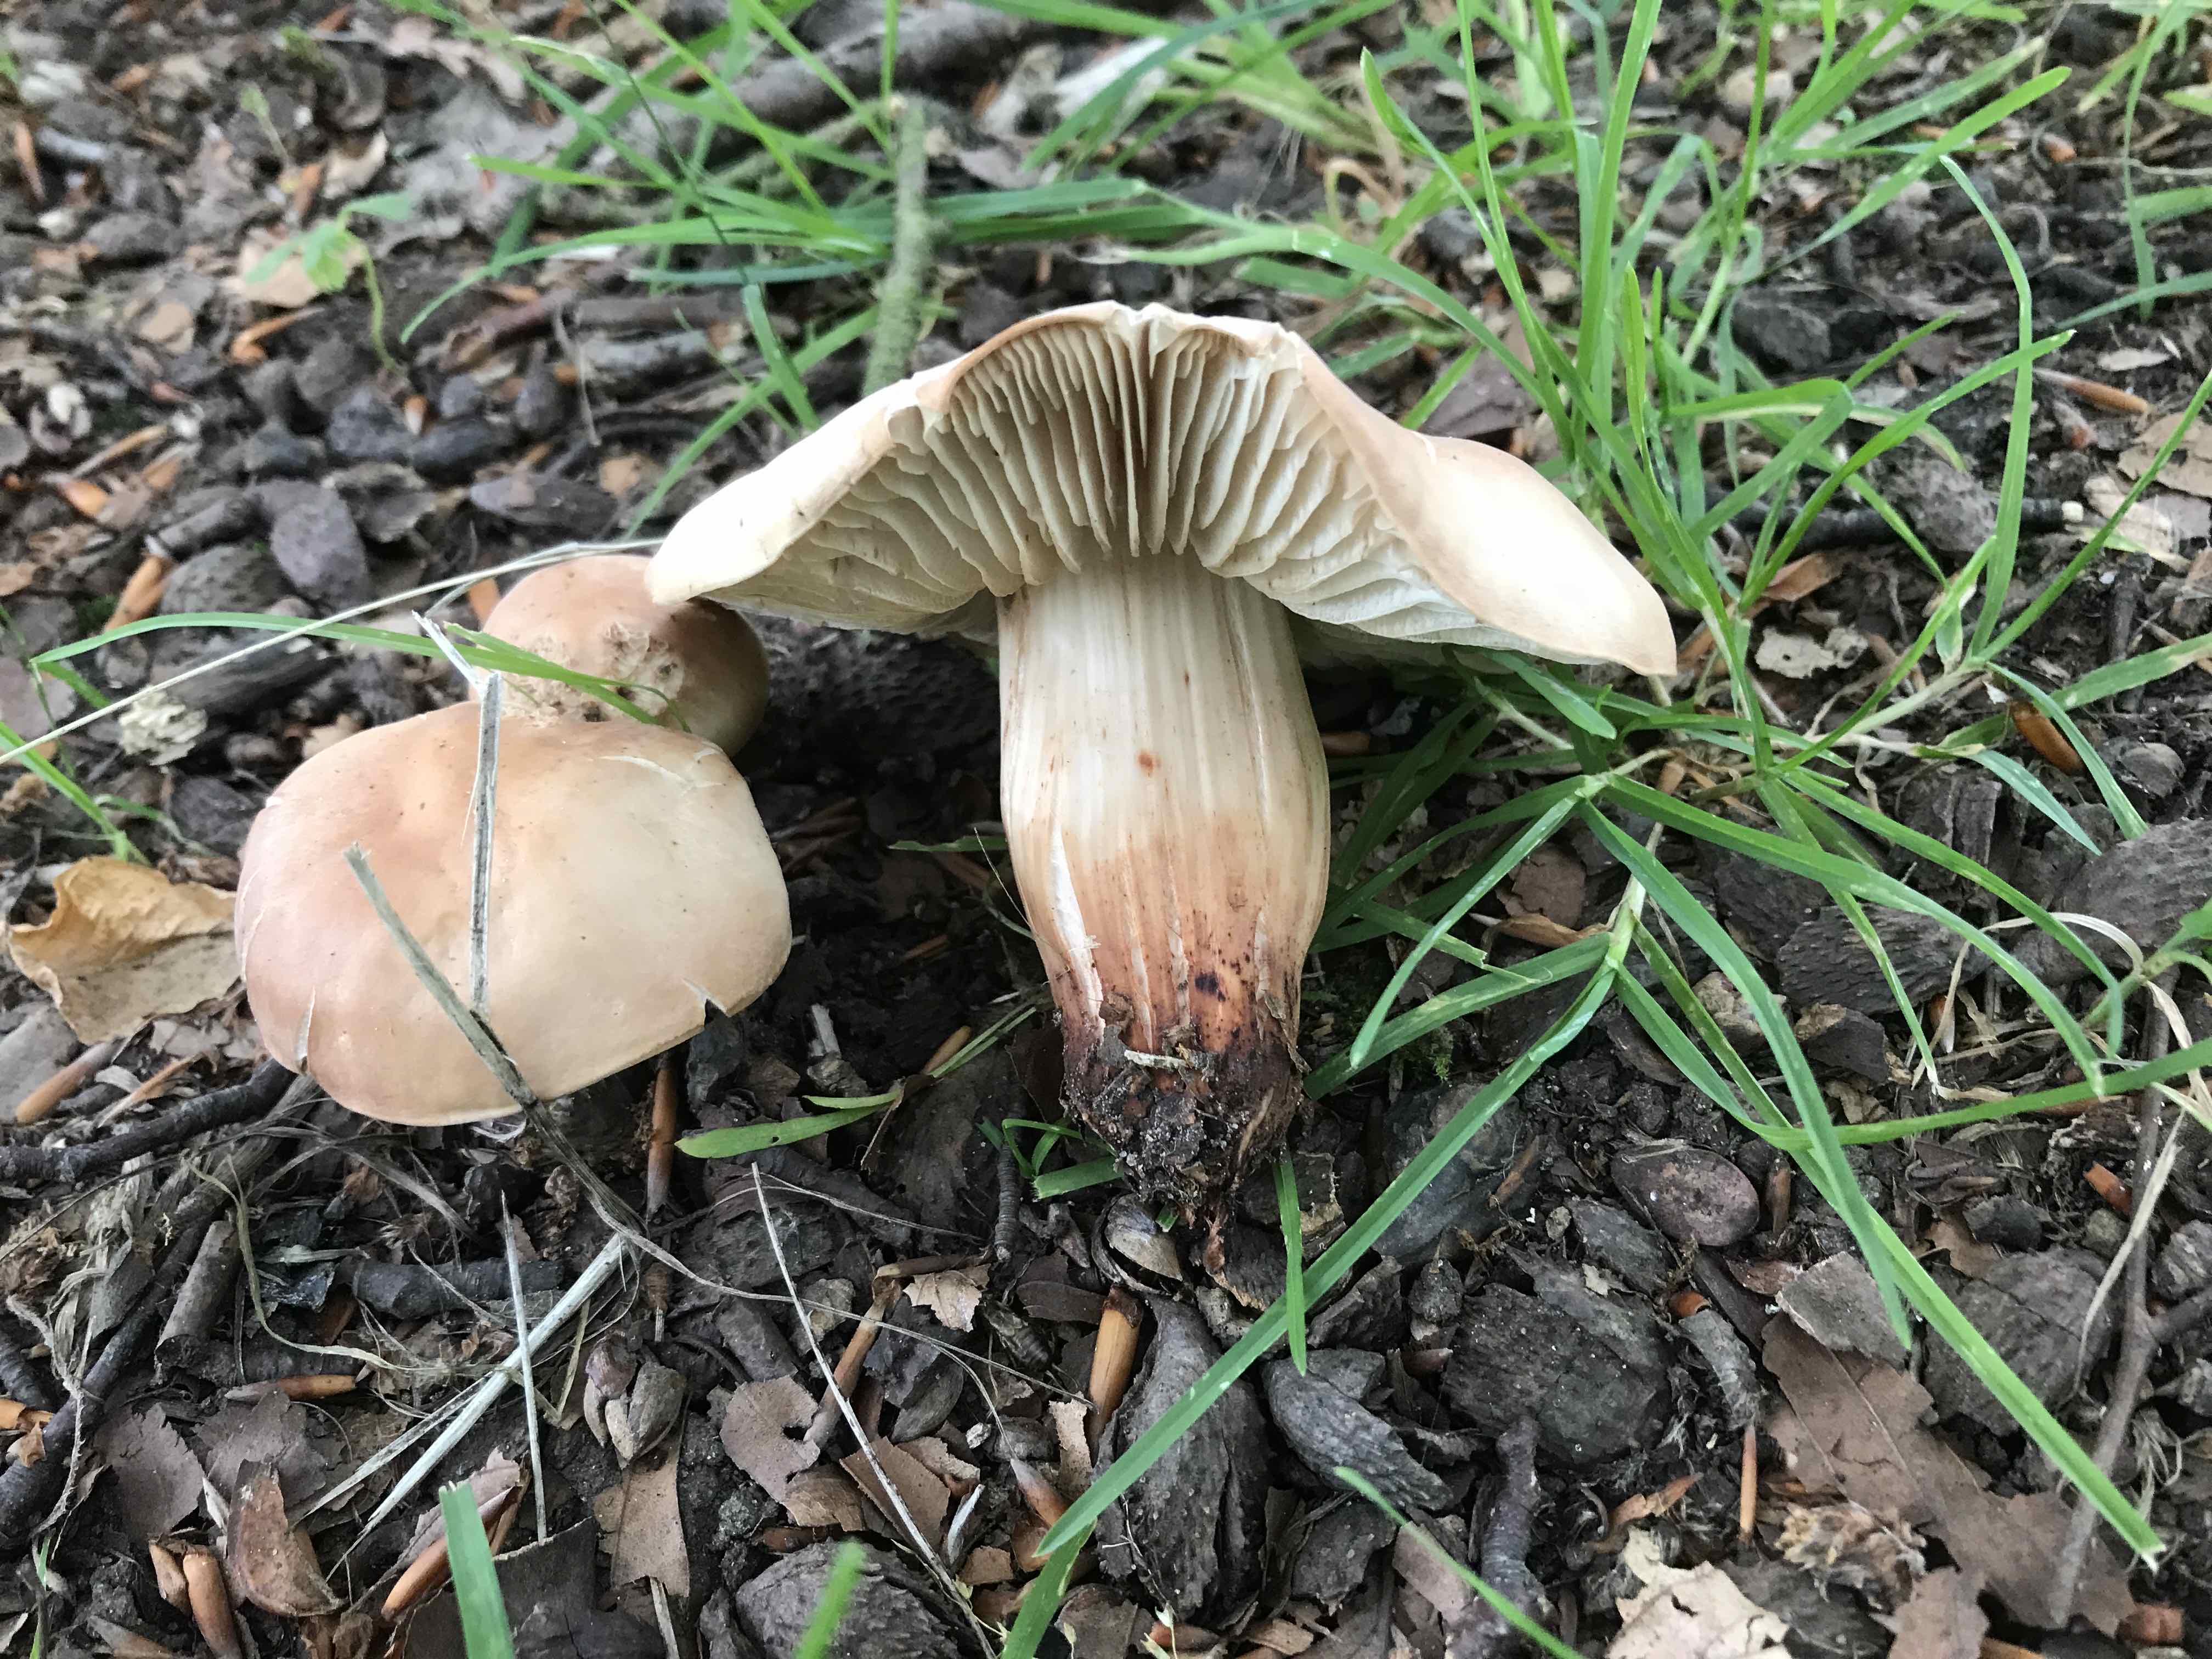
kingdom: Fungi
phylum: Basidiomycota
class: Agaricomycetes
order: Agaricales
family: Omphalotaceae
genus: Gymnopus
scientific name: Gymnopus fusipes
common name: tenstokket fladhat
